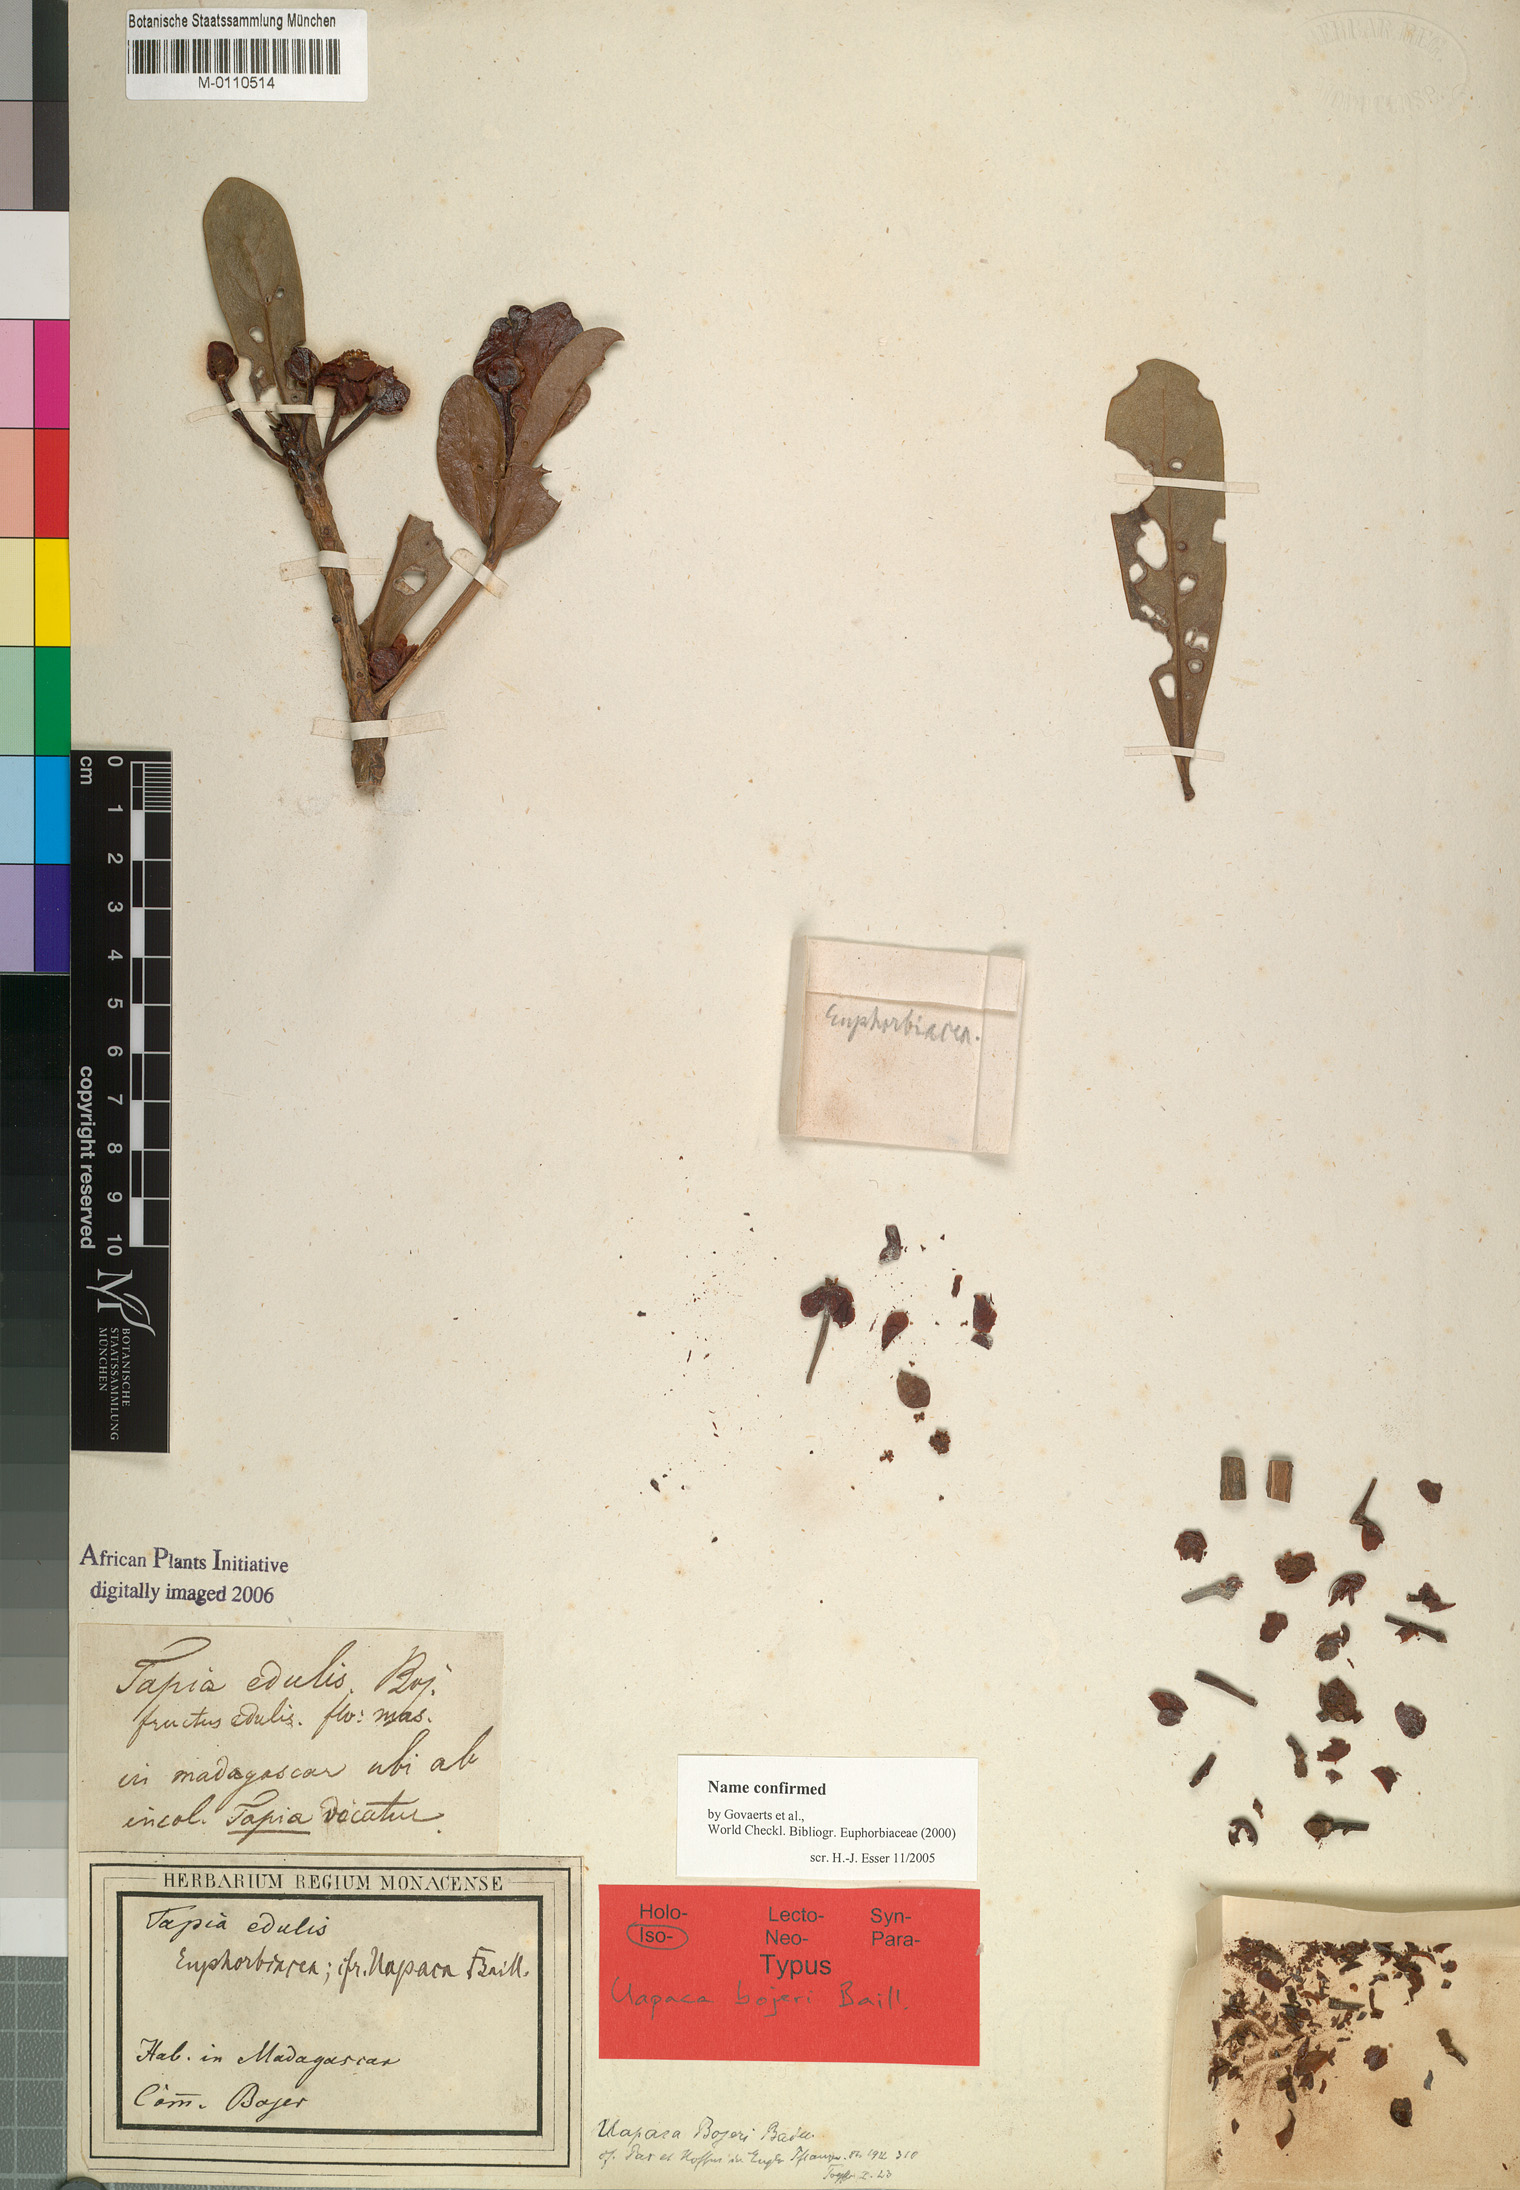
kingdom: Plantae
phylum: Tracheophyta
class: Magnoliopsida
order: Malpighiales
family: Phyllanthaceae
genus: Uapaca
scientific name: Uapaca bojeri
